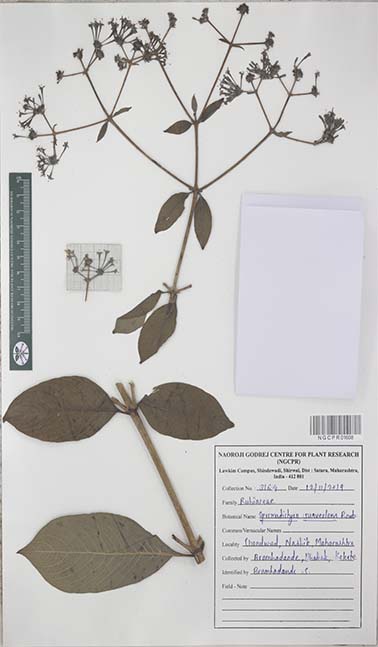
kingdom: Plantae
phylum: Tracheophyta
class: Magnoliopsida
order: Gentianales
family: Rubiaceae
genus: Spermadictyon
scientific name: Spermadictyon suaveolens
